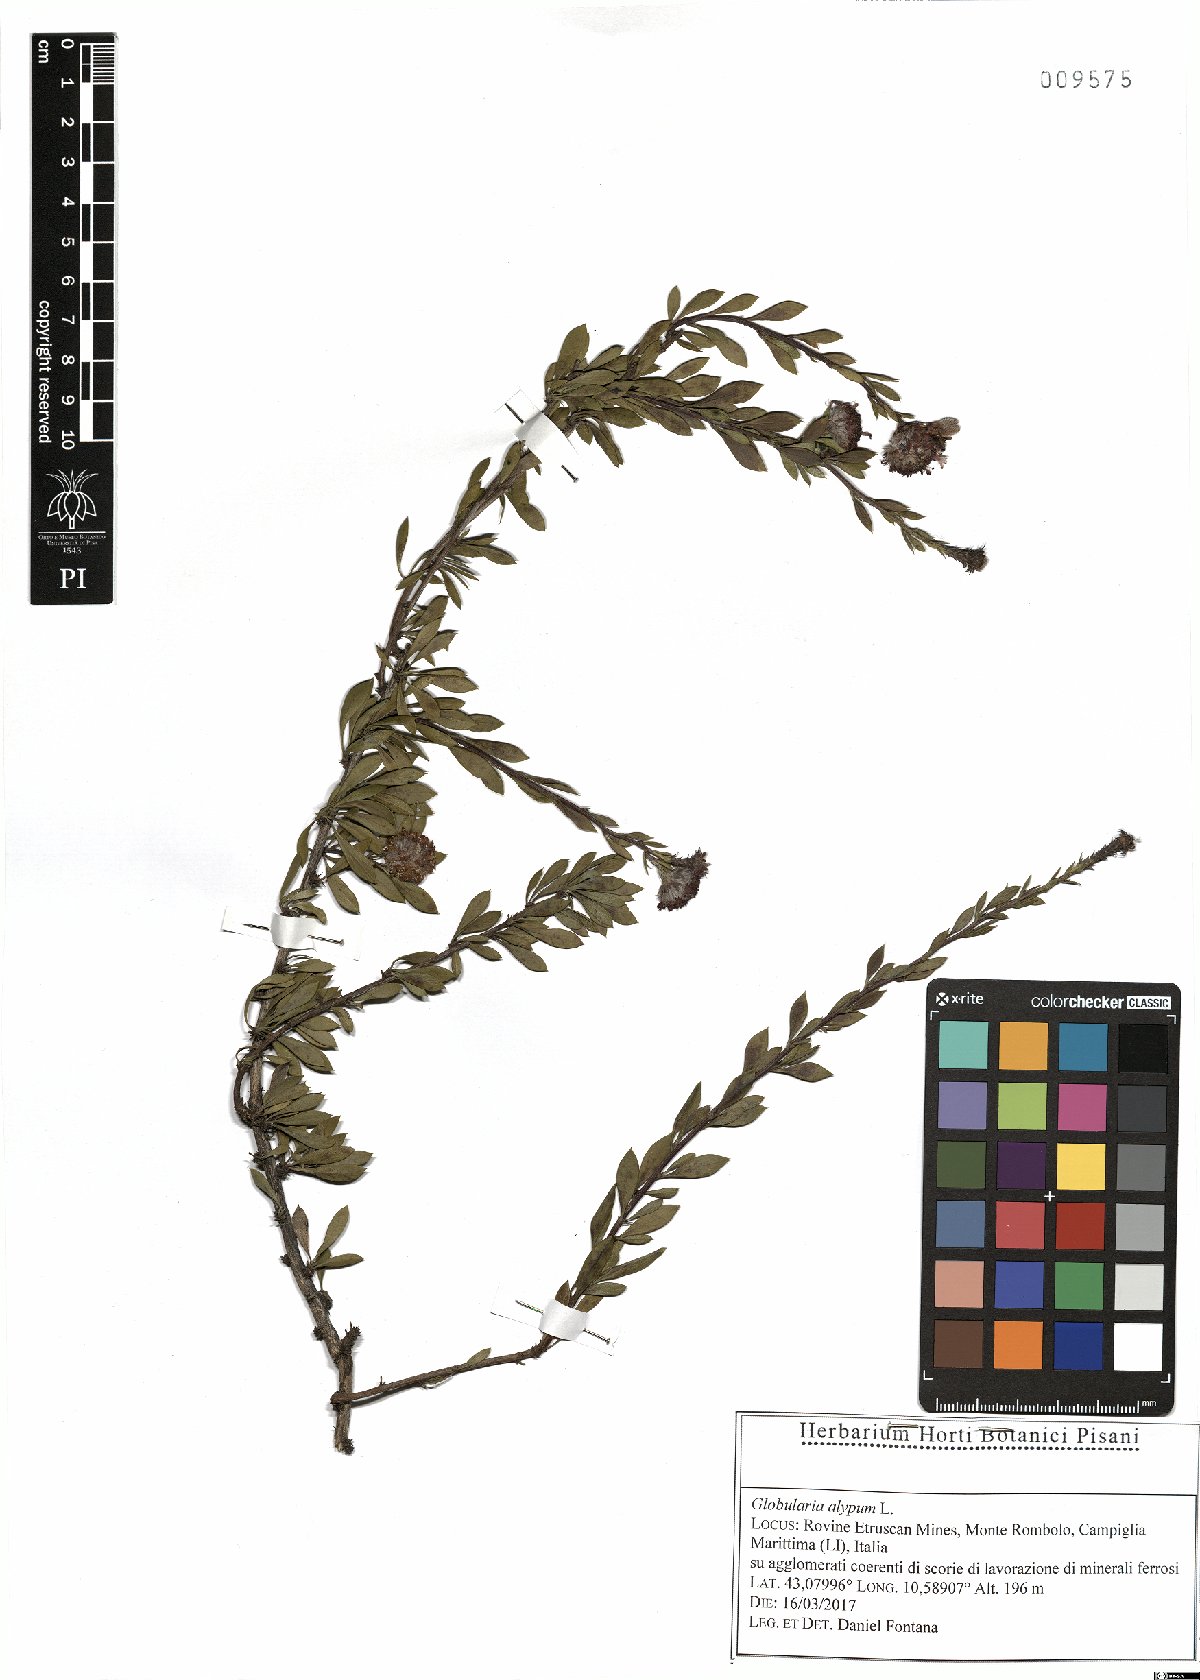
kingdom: Plantae
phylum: Tracheophyta
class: Magnoliopsida
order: Lamiales
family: Plantaginaceae
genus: Globularia
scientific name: Globularia alypum
